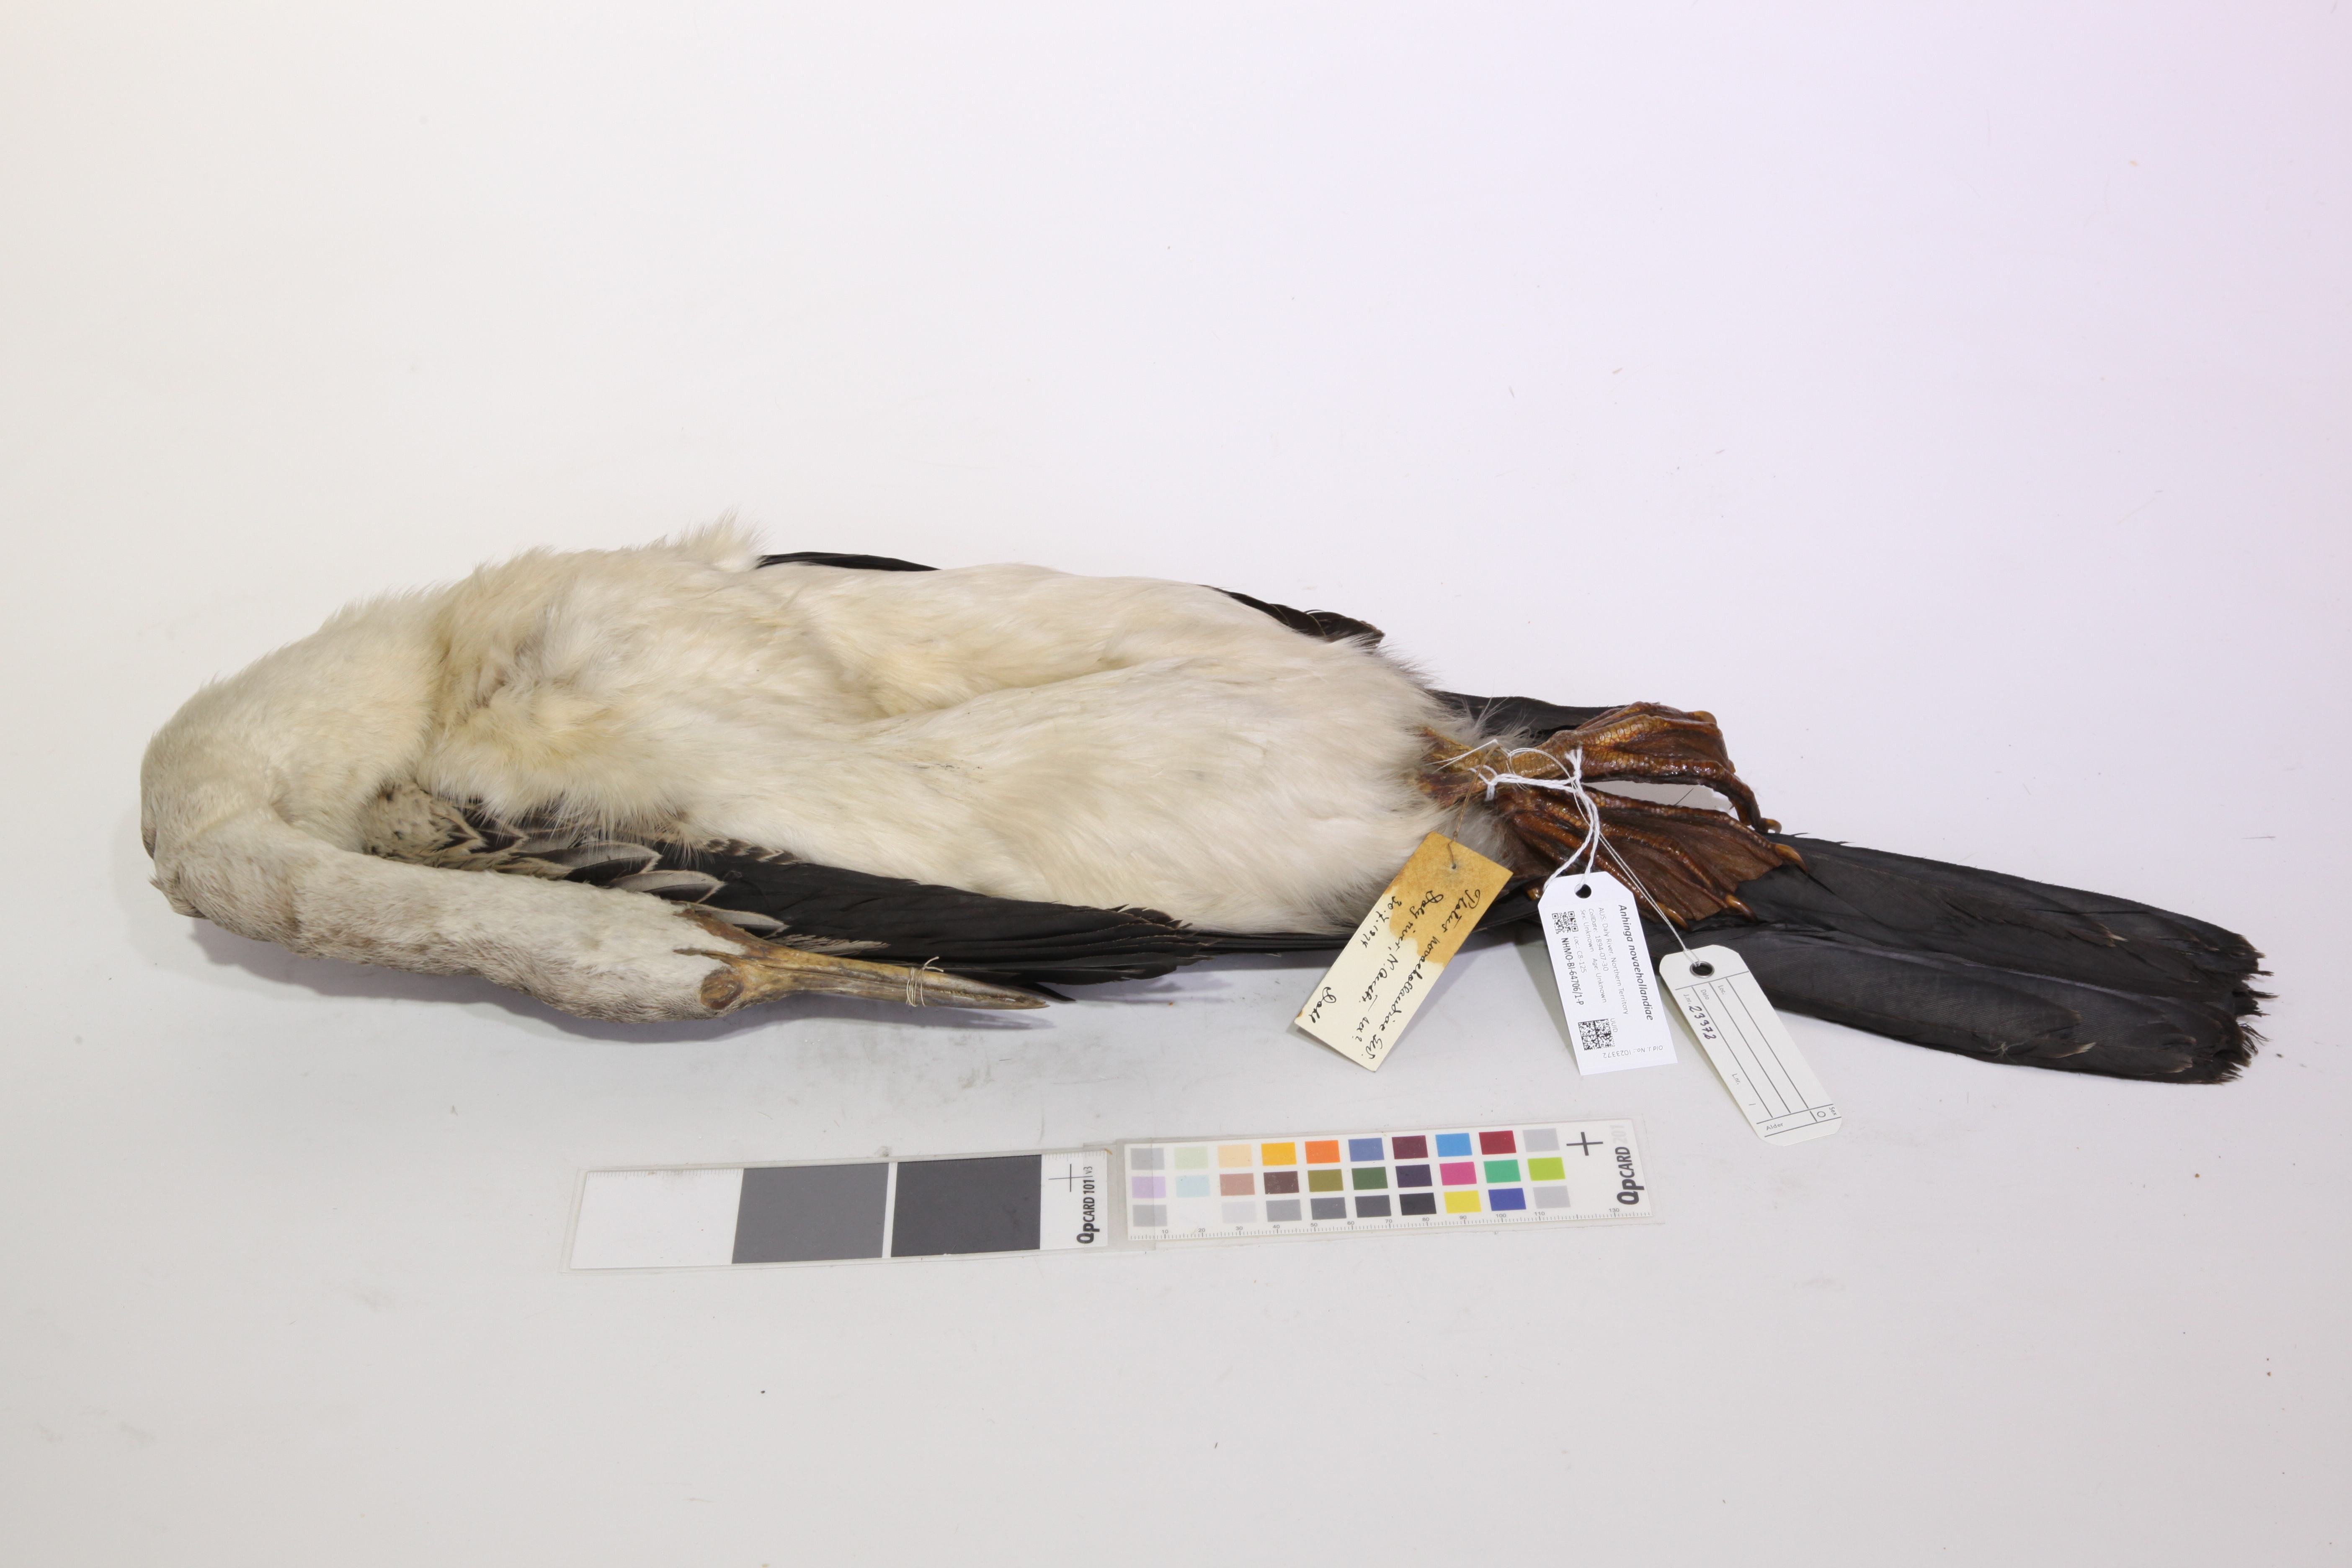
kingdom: Animalia
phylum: Chordata
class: Aves
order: Suliformes
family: Anhingidae
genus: Anhinga
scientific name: Anhinga novaehollandiae
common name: Australasian darter
